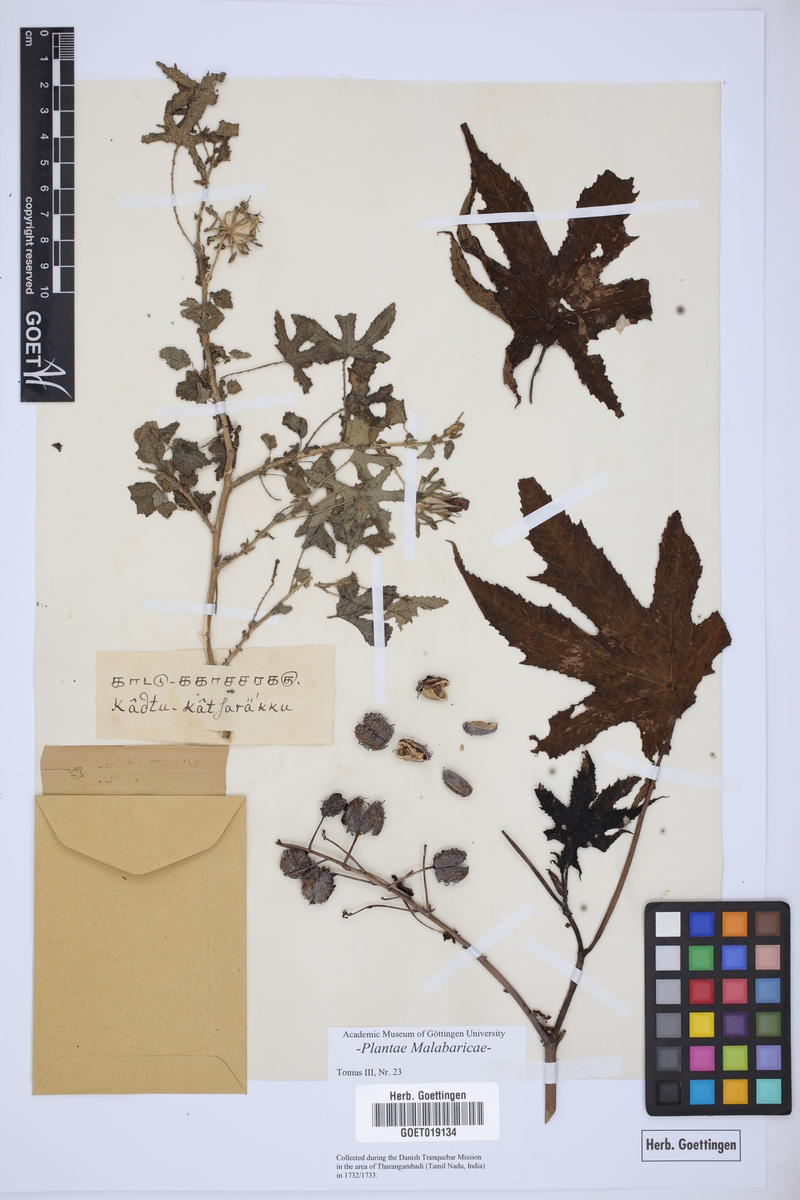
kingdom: Plantae
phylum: Tracheophyta
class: Magnoliopsida
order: Malpighiales
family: Euphorbiaceae
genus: Ricinus
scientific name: Ricinus communis
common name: Castor-oil-plant
